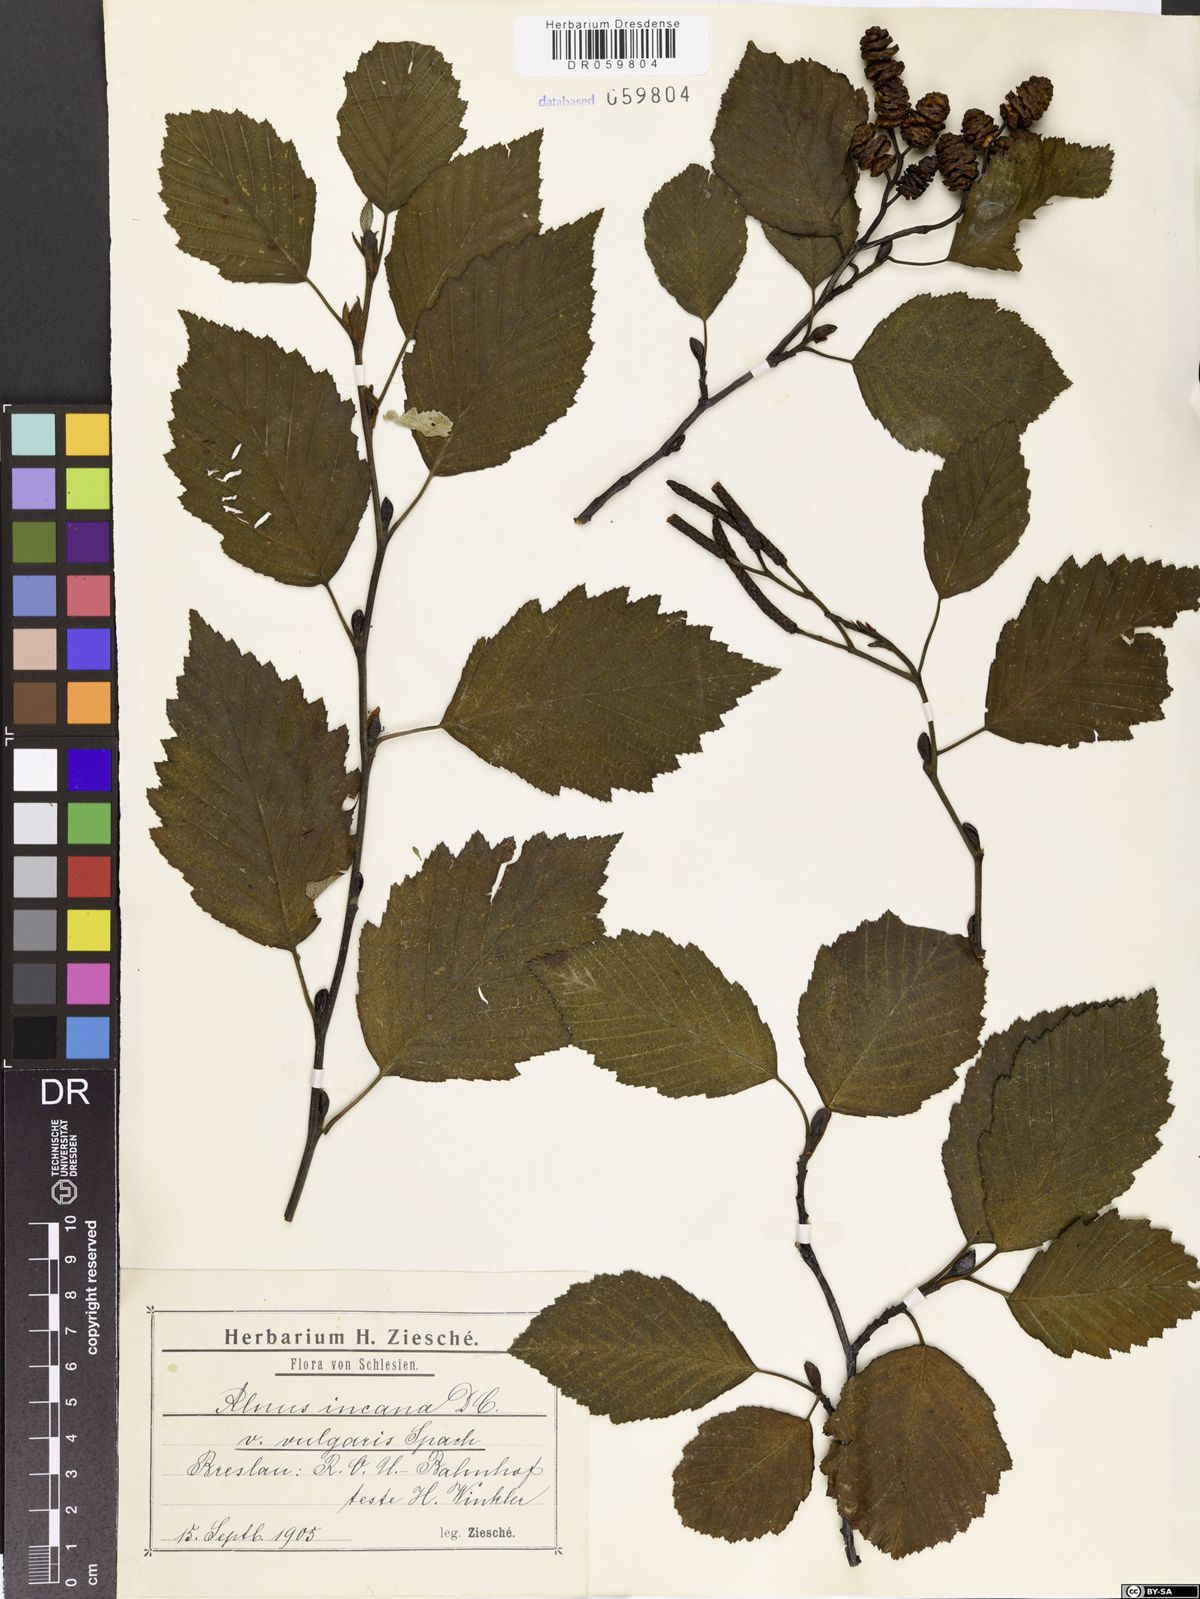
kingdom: Plantae
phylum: Tracheophyta
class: Magnoliopsida
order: Fagales
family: Betulaceae
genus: Alnus
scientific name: Alnus incana
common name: Grey alder
